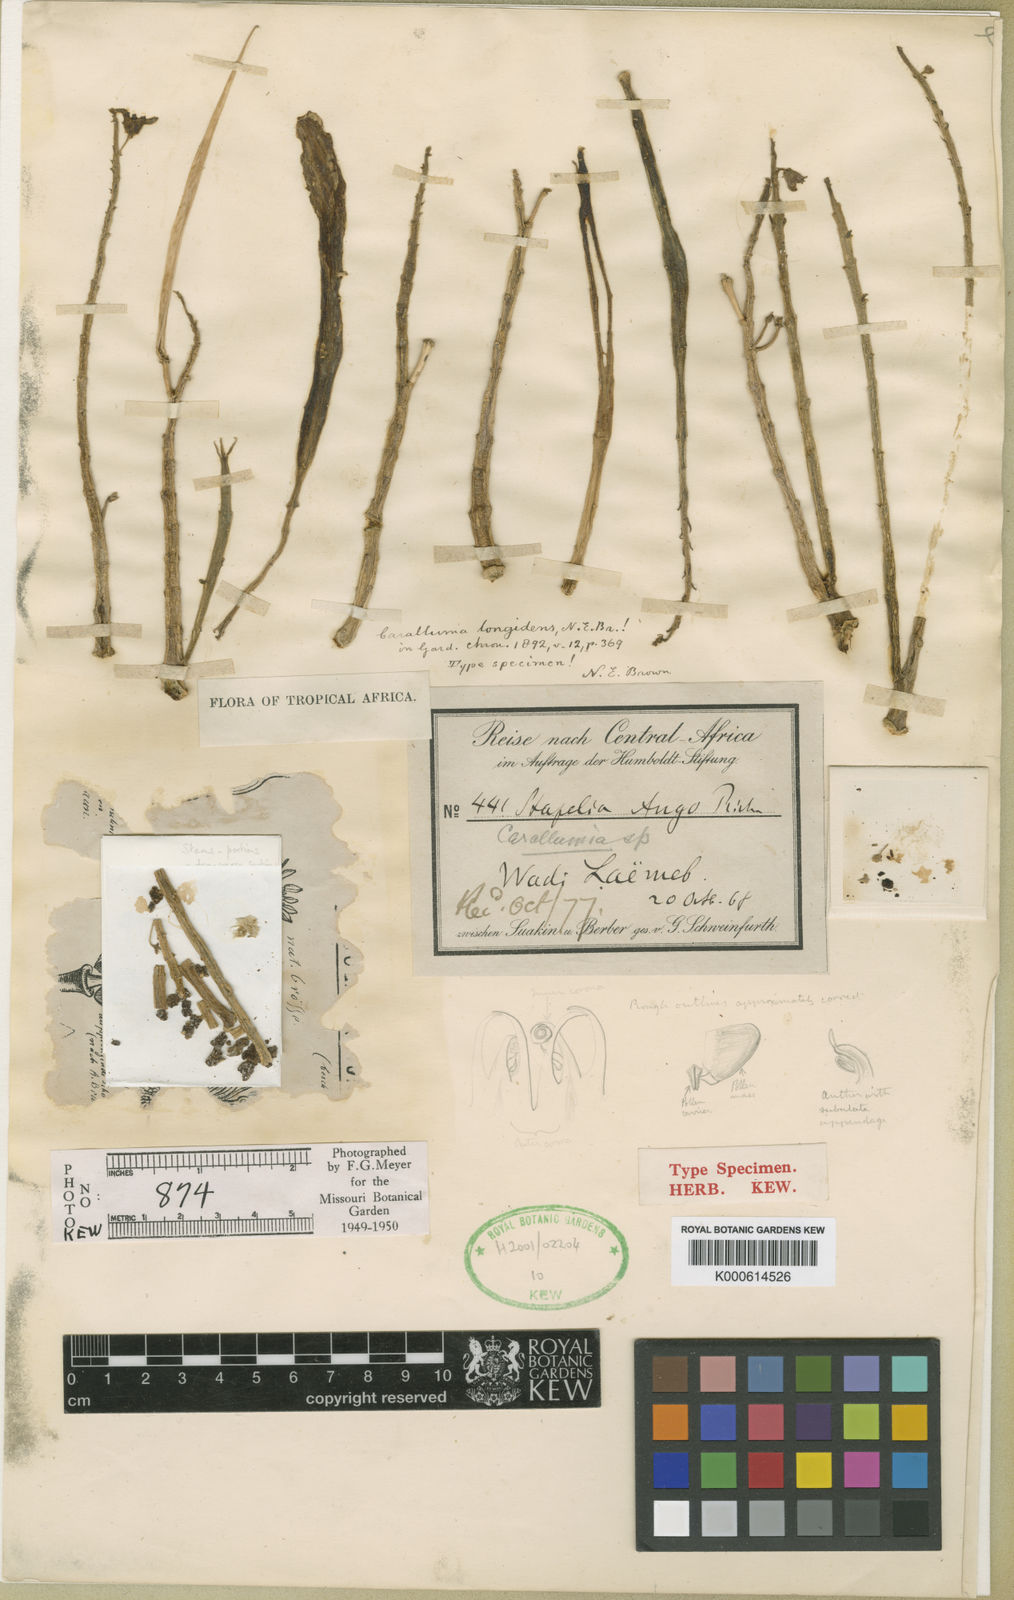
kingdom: Plantae
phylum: Tracheophyta
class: Magnoliopsida
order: Gentianales
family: Apocynaceae
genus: Ceropegia
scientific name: Ceropegia edulis
